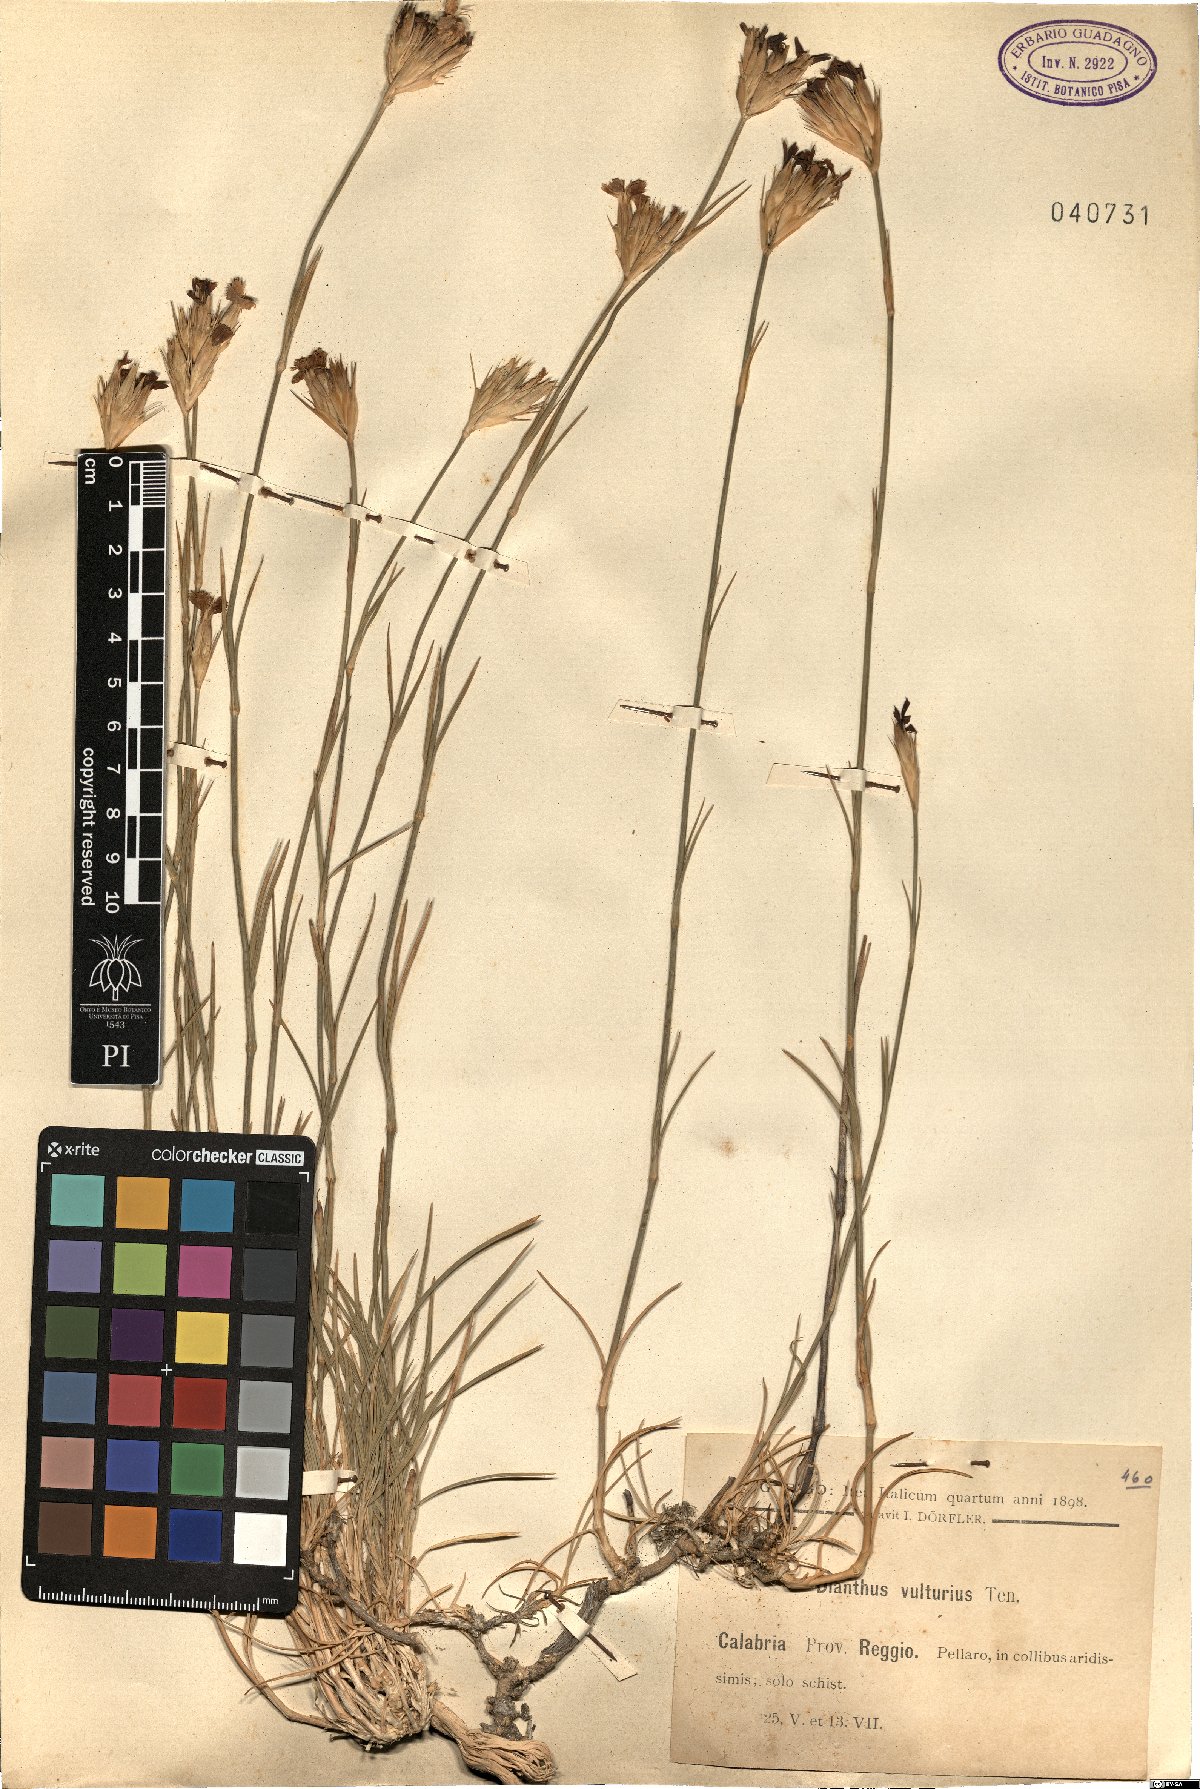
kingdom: Plantae
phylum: Tracheophyta
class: Magnoliopsida
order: Caryophyllales
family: Caryophyllaceae
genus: Dianthus
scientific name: Dianthus vulturius
